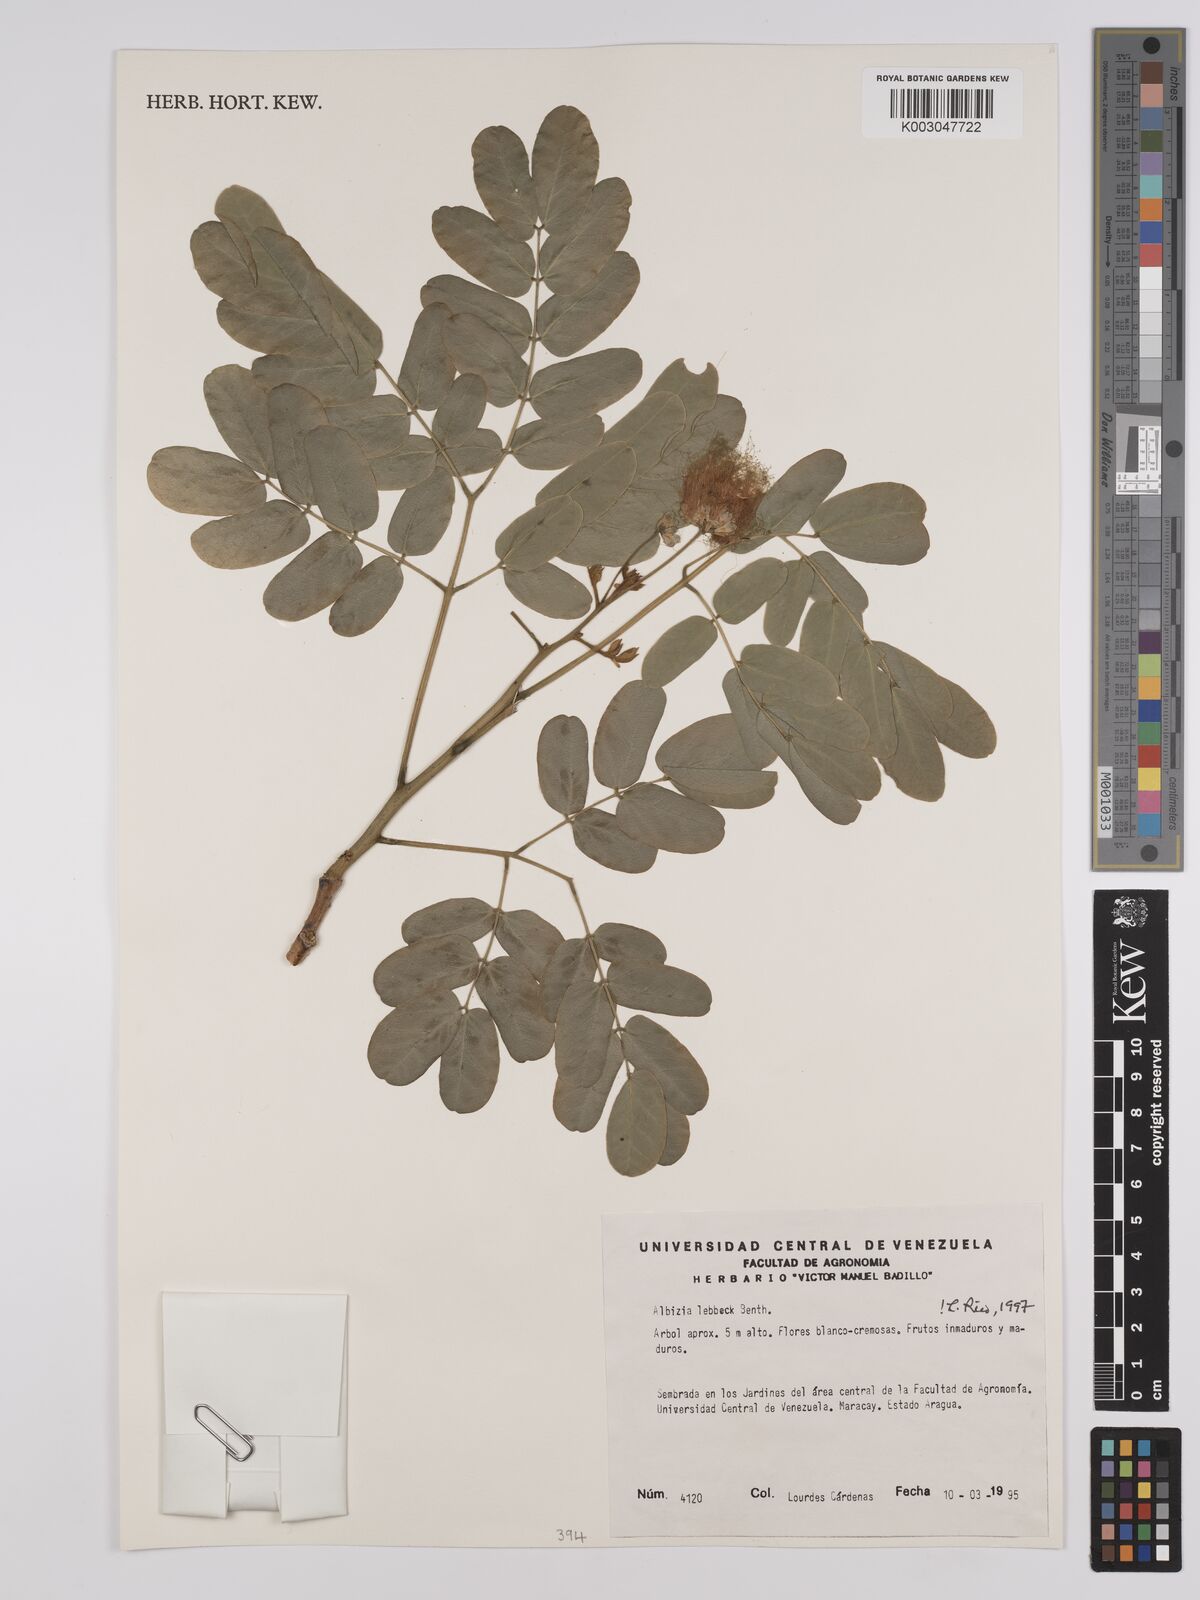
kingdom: Plantae
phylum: Tracheophyta
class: Magnoliopsida
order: Fabales
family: Fabaceae
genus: Albizia
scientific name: Albizia lebbeck
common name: Woman's tongue
